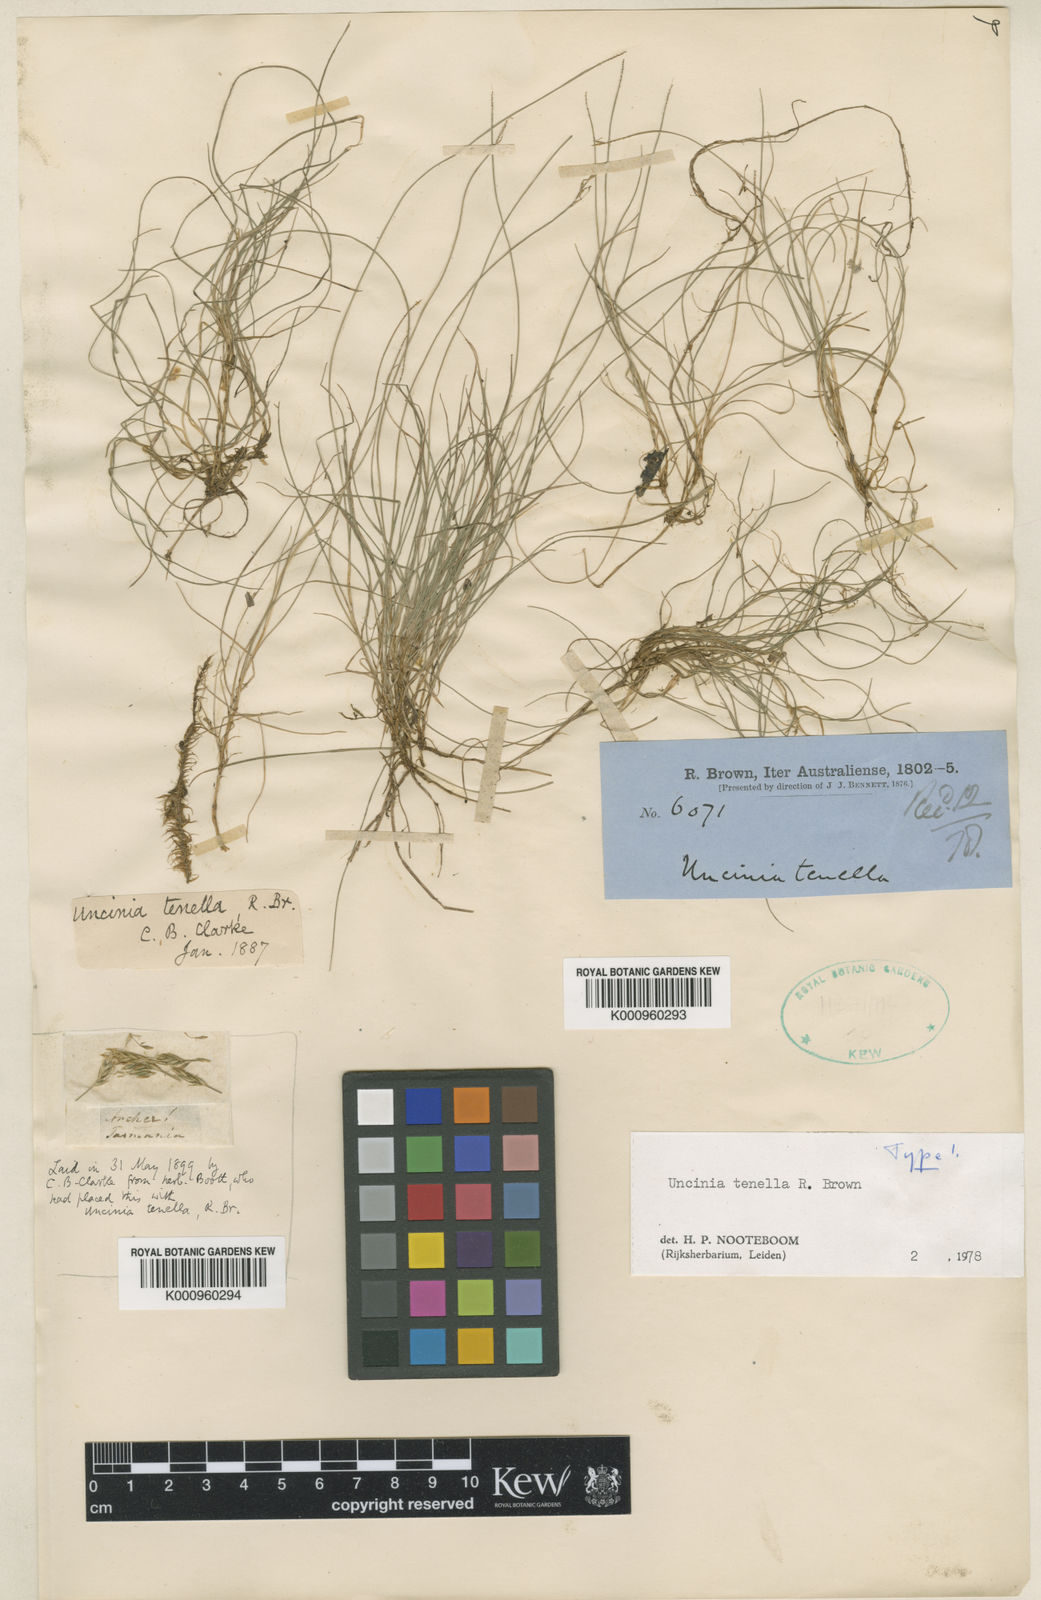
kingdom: Plantae
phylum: Tracheophyta
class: Liliopsida
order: Poales
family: Cyperaceae
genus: Carex
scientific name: Carex austrotenella
